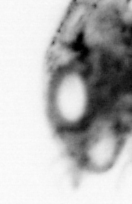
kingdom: Animalia
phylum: Arthropoda
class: Malacostraca
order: Decapoda
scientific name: Decapoda
